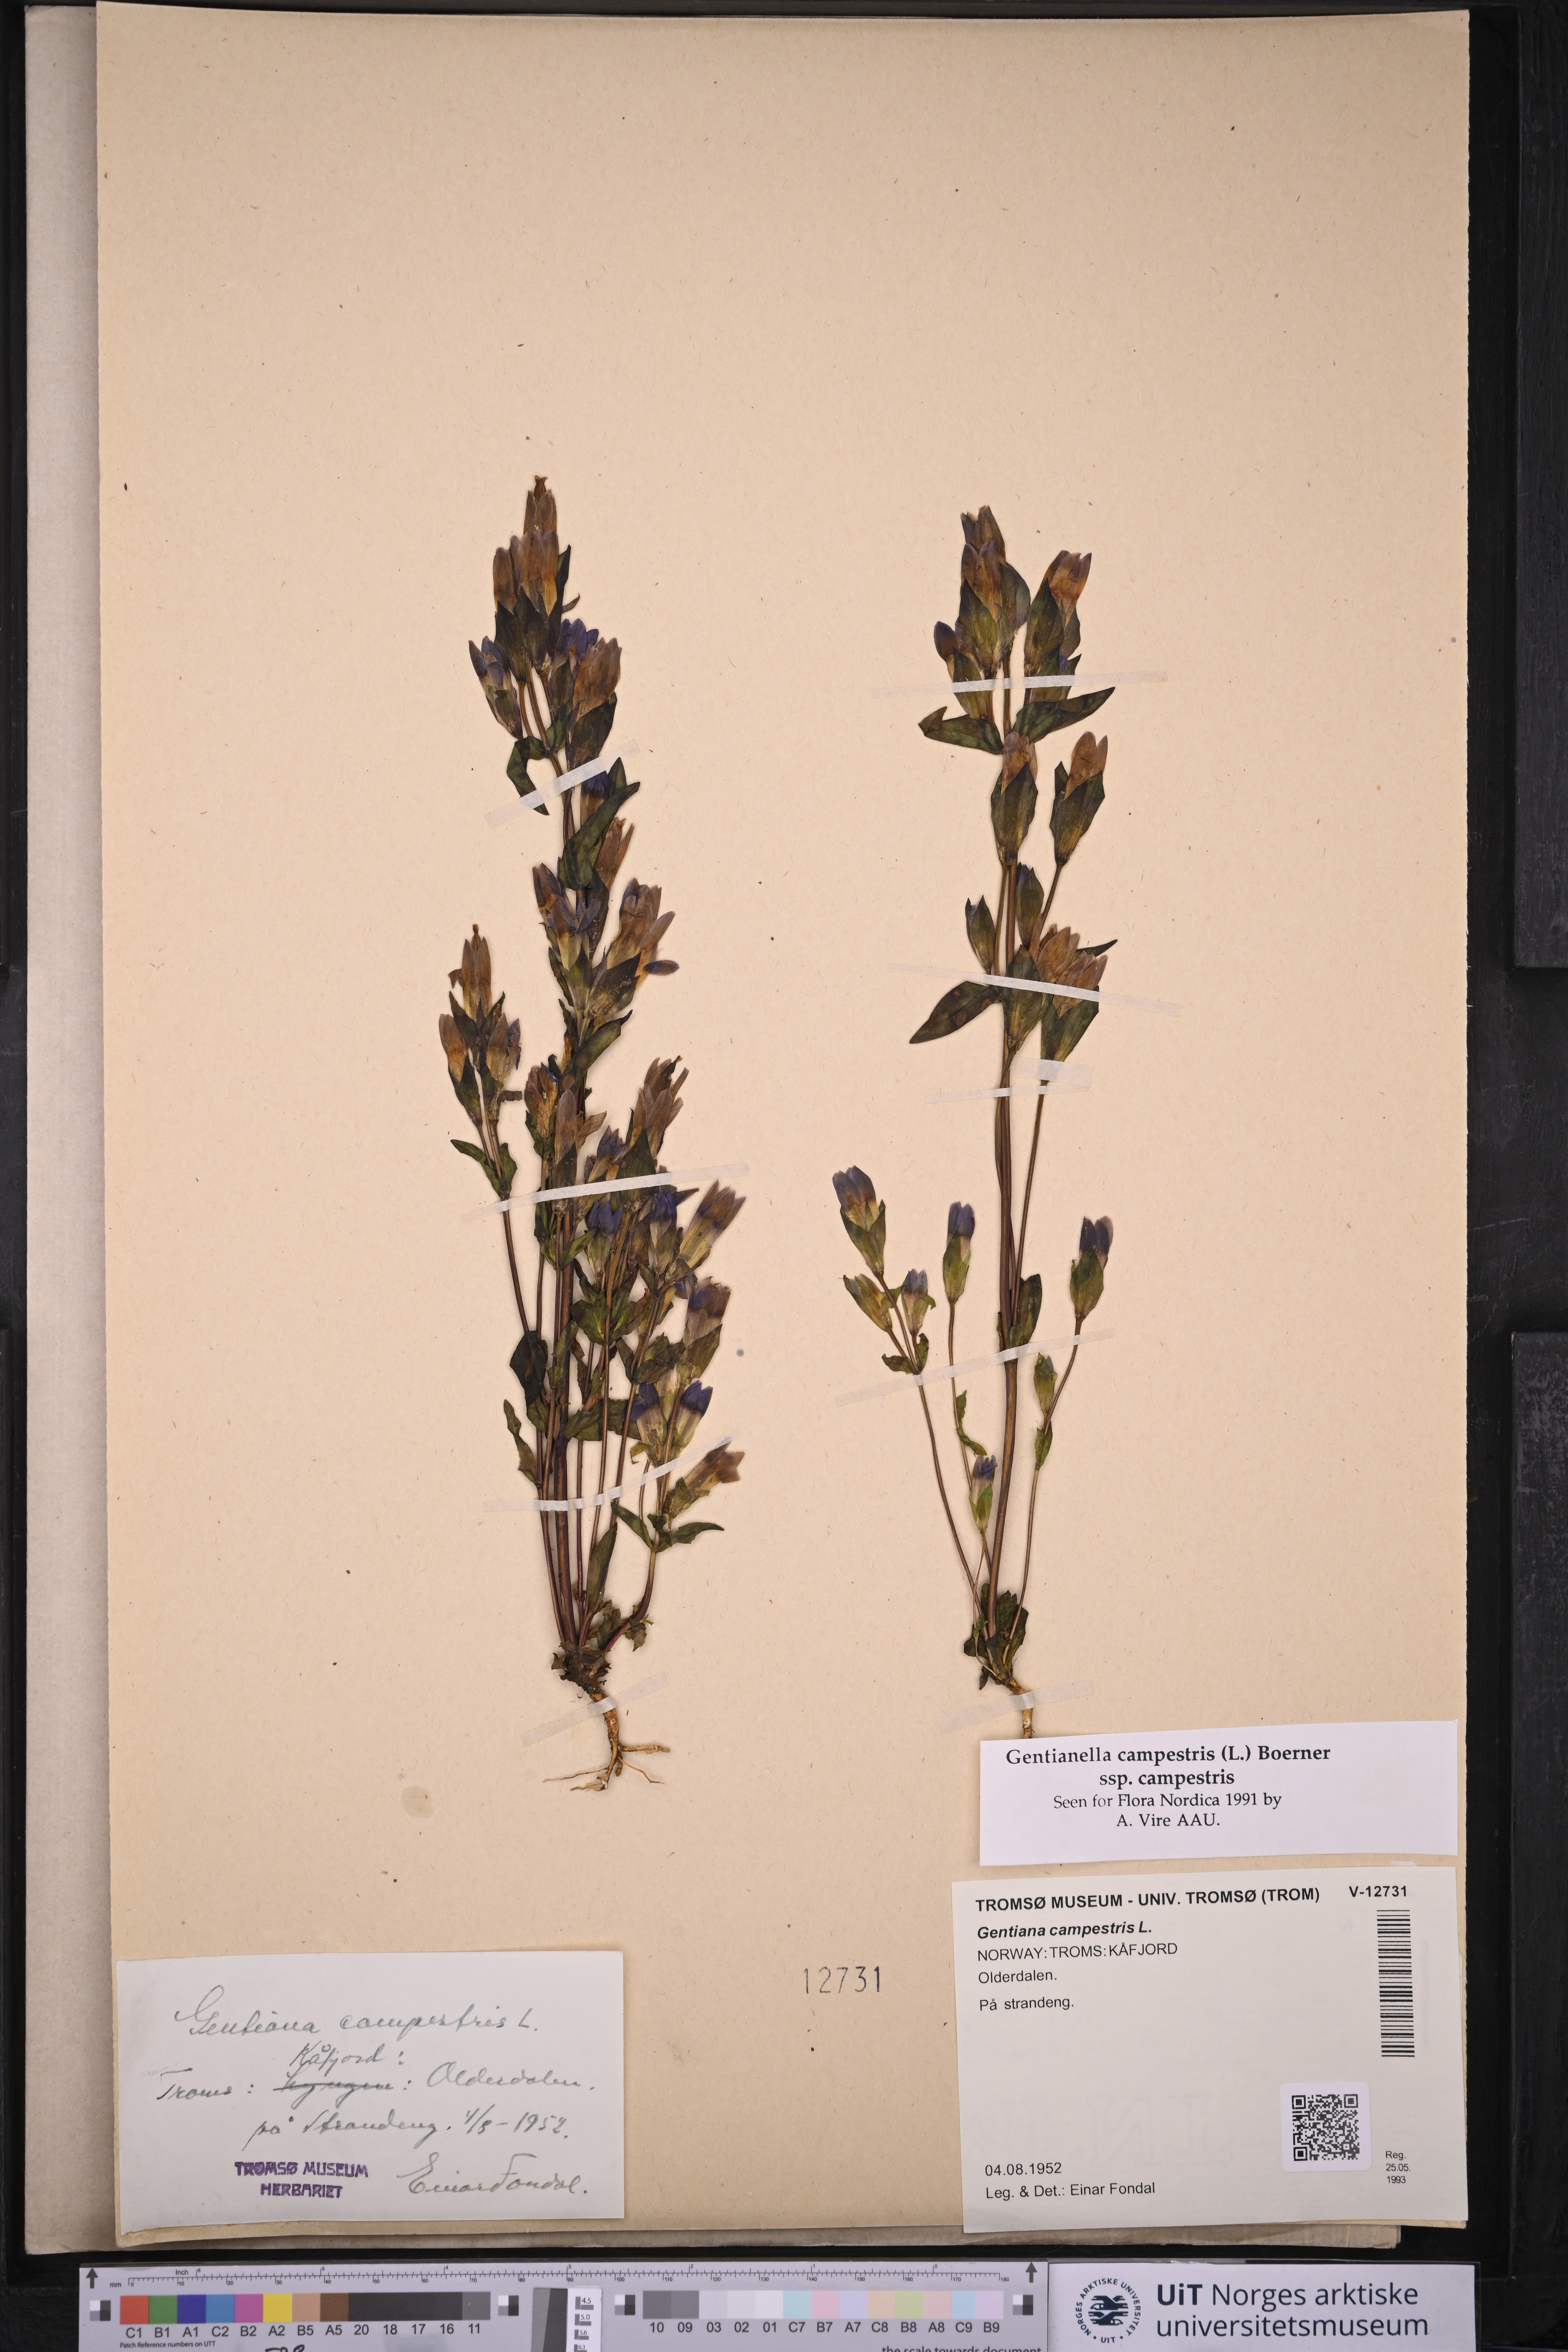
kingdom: Plantae
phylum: Tracheophyta
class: Magnoliopsida
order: Gentianales
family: Gentianaceae
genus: Gentianella
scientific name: Gentianella campestris
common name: Field gentian
